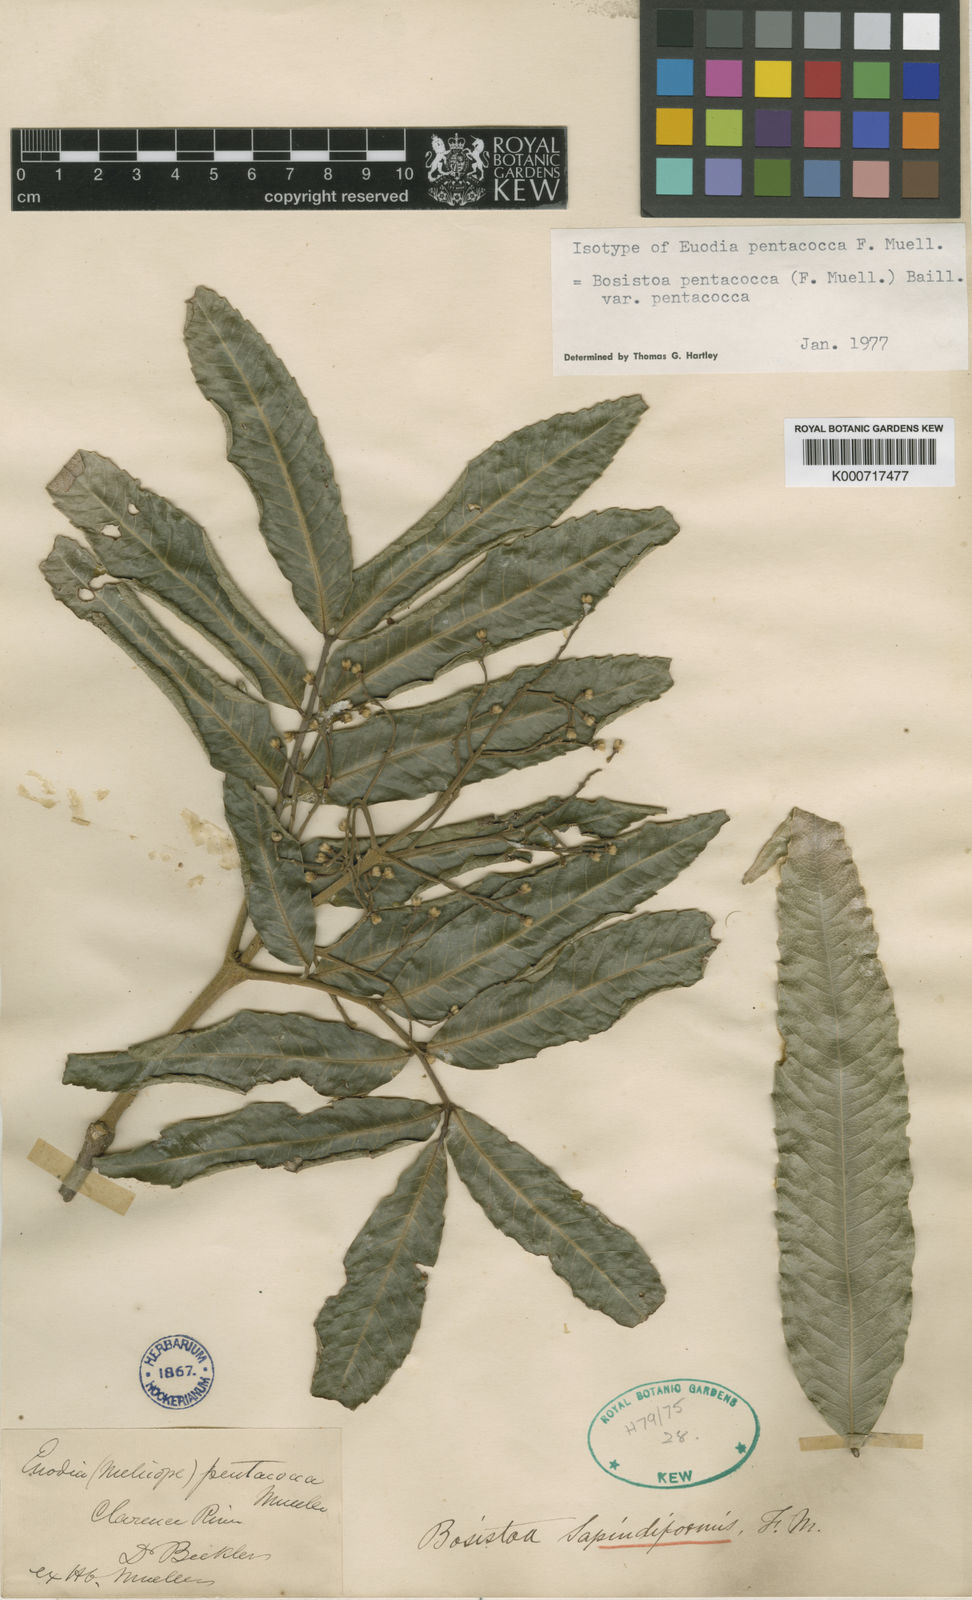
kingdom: Plantae
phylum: Tracheophyta
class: Magnoliopsida
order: Sapindales
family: Rutaceae
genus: Bosistoa
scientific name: Bosistoa pentacocca
